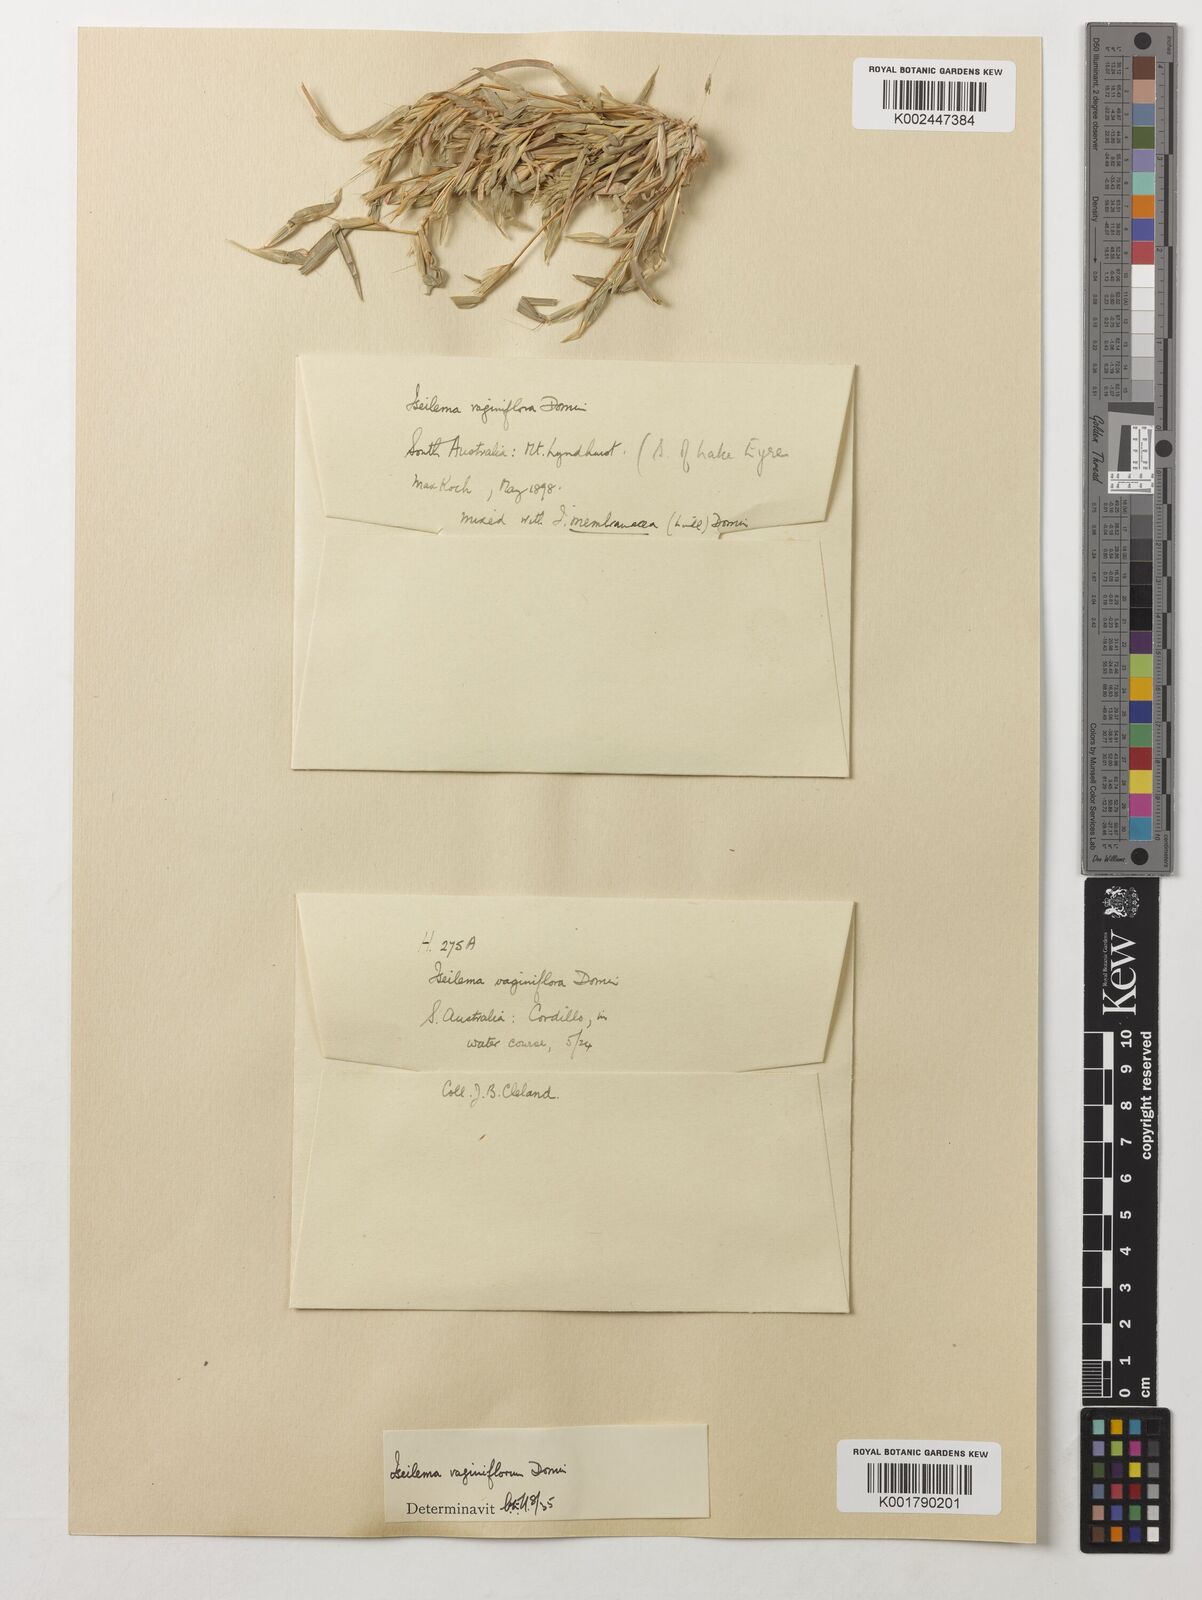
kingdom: Plantae
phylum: Tracheophyta
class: Liliopsida
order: Poales
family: Poaceae
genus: Iseilema
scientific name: Iseilema vaginiflorum
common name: Red flinders grass
